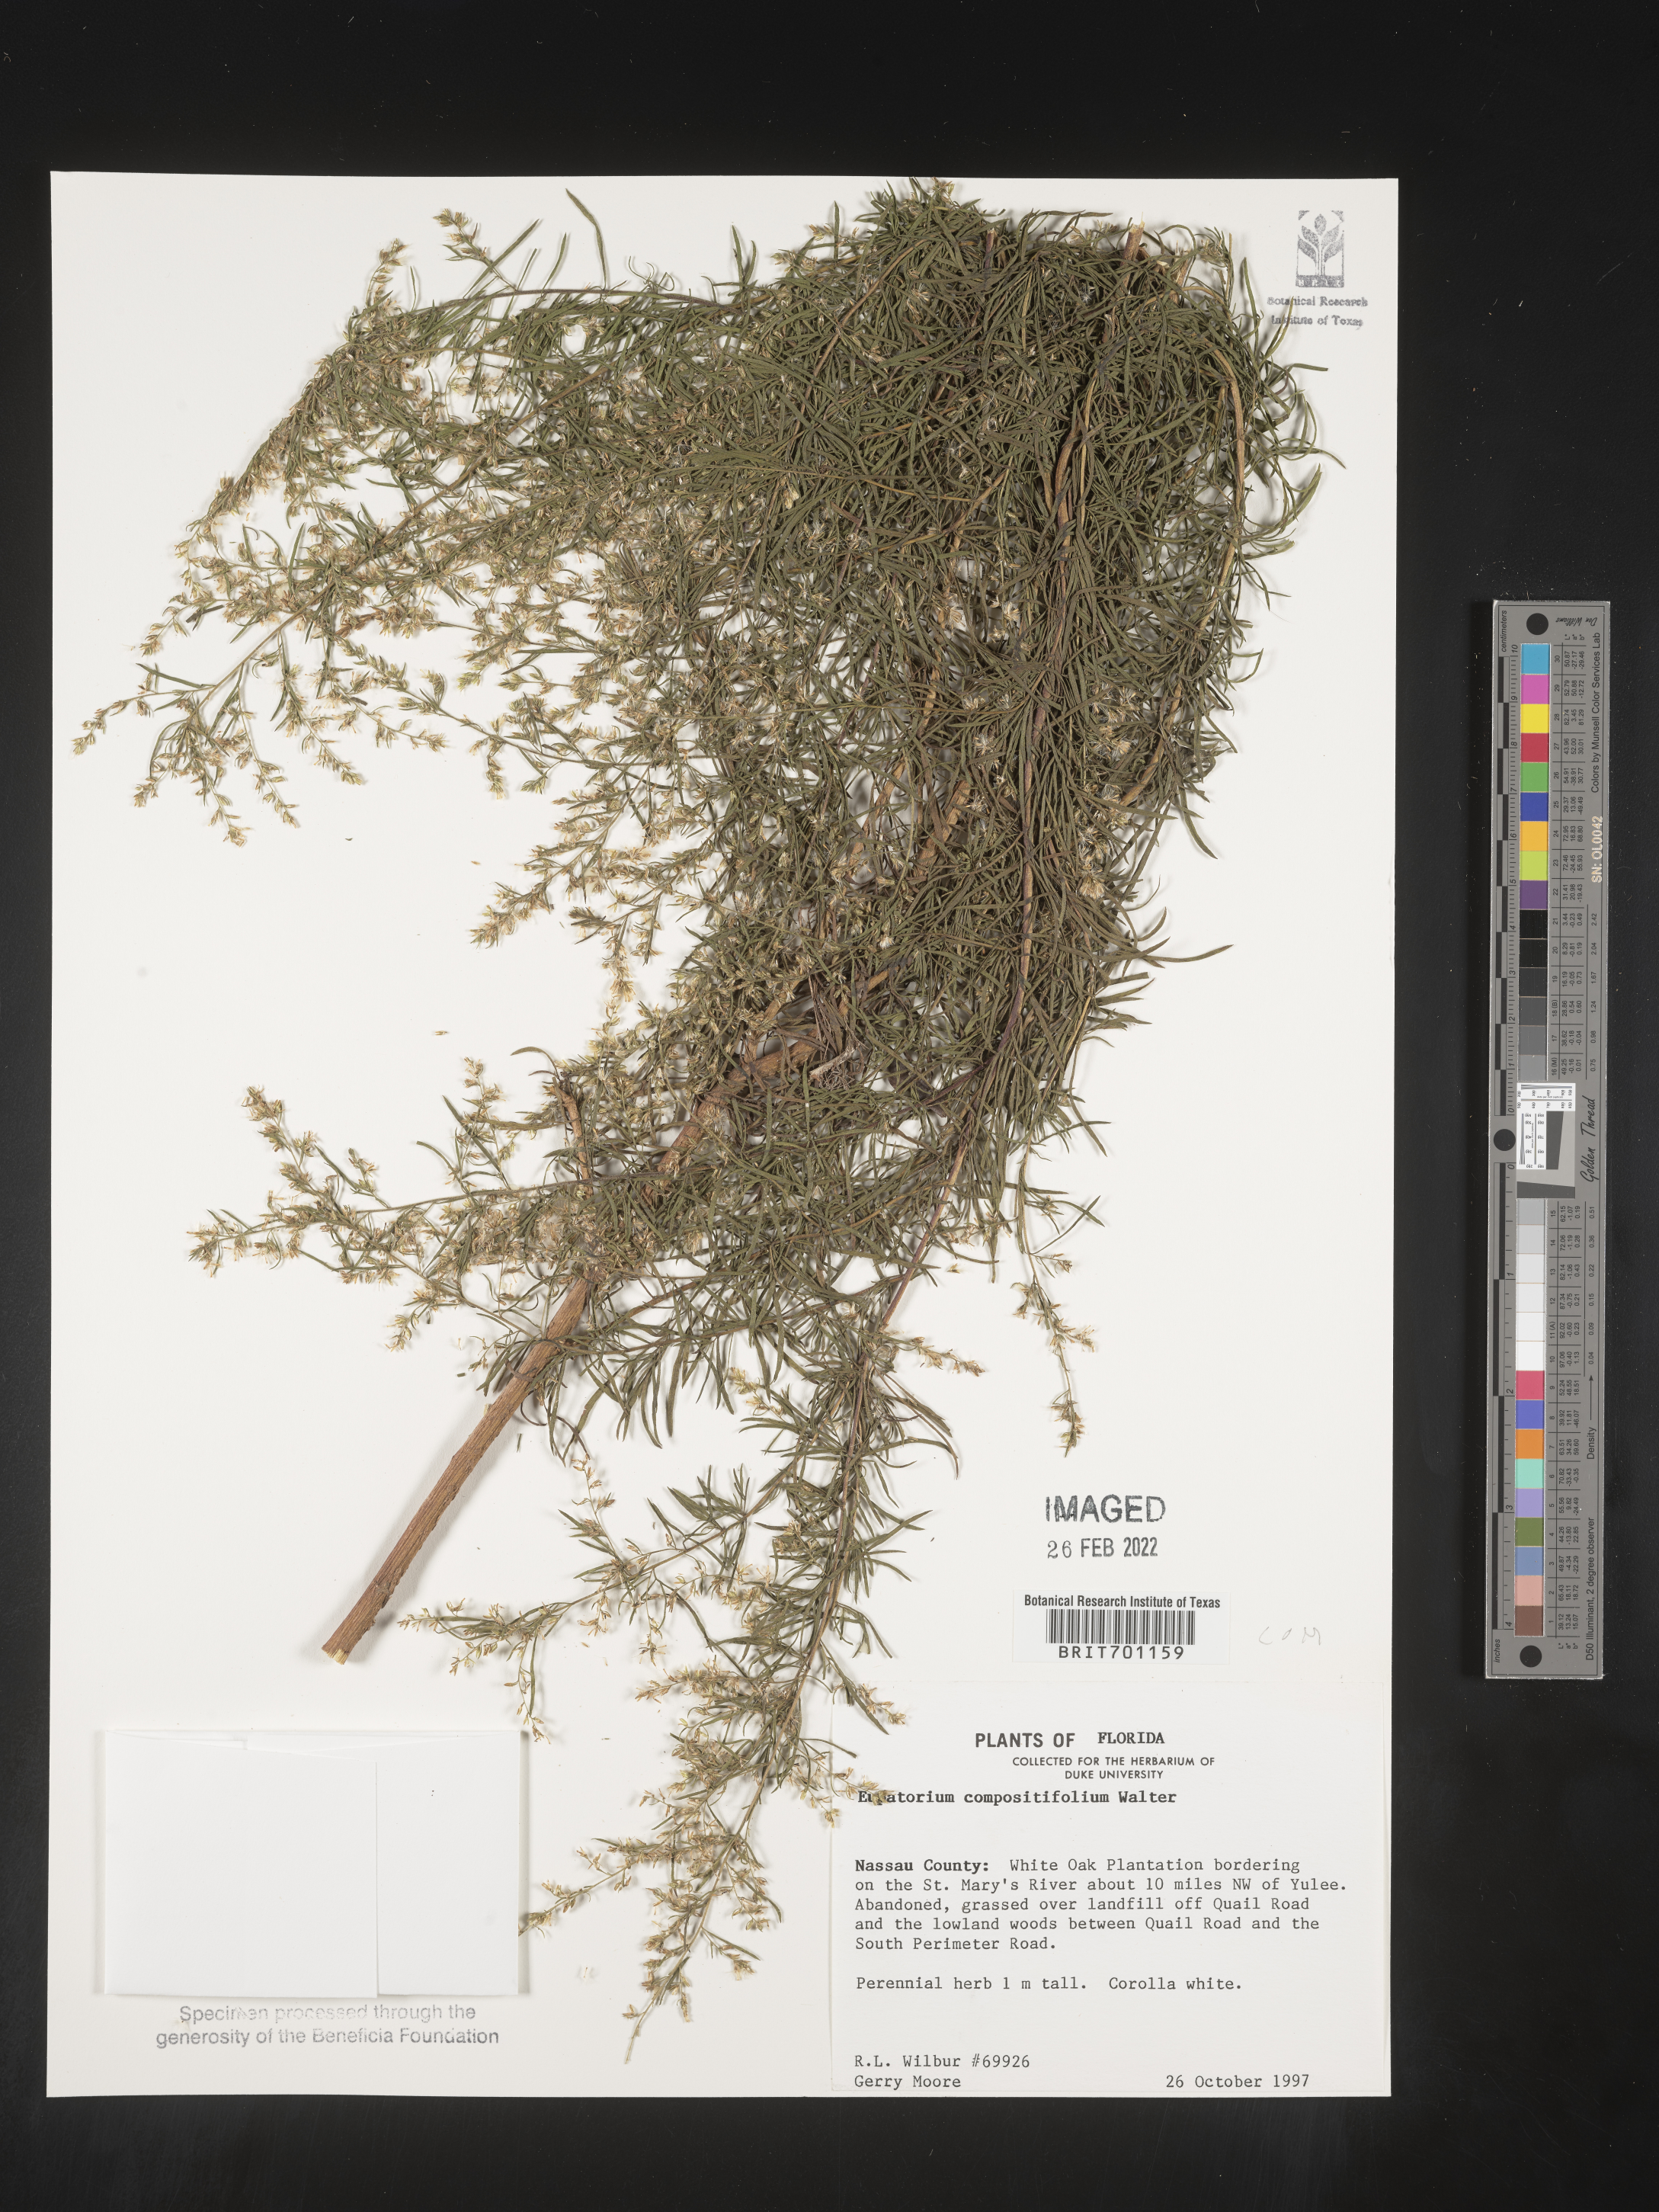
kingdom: Plantae
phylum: Tracheophyta
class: Magnoliopsida
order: Asterales
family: Asteraceae
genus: Eupatorium
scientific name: Eupatorium compositifolium
